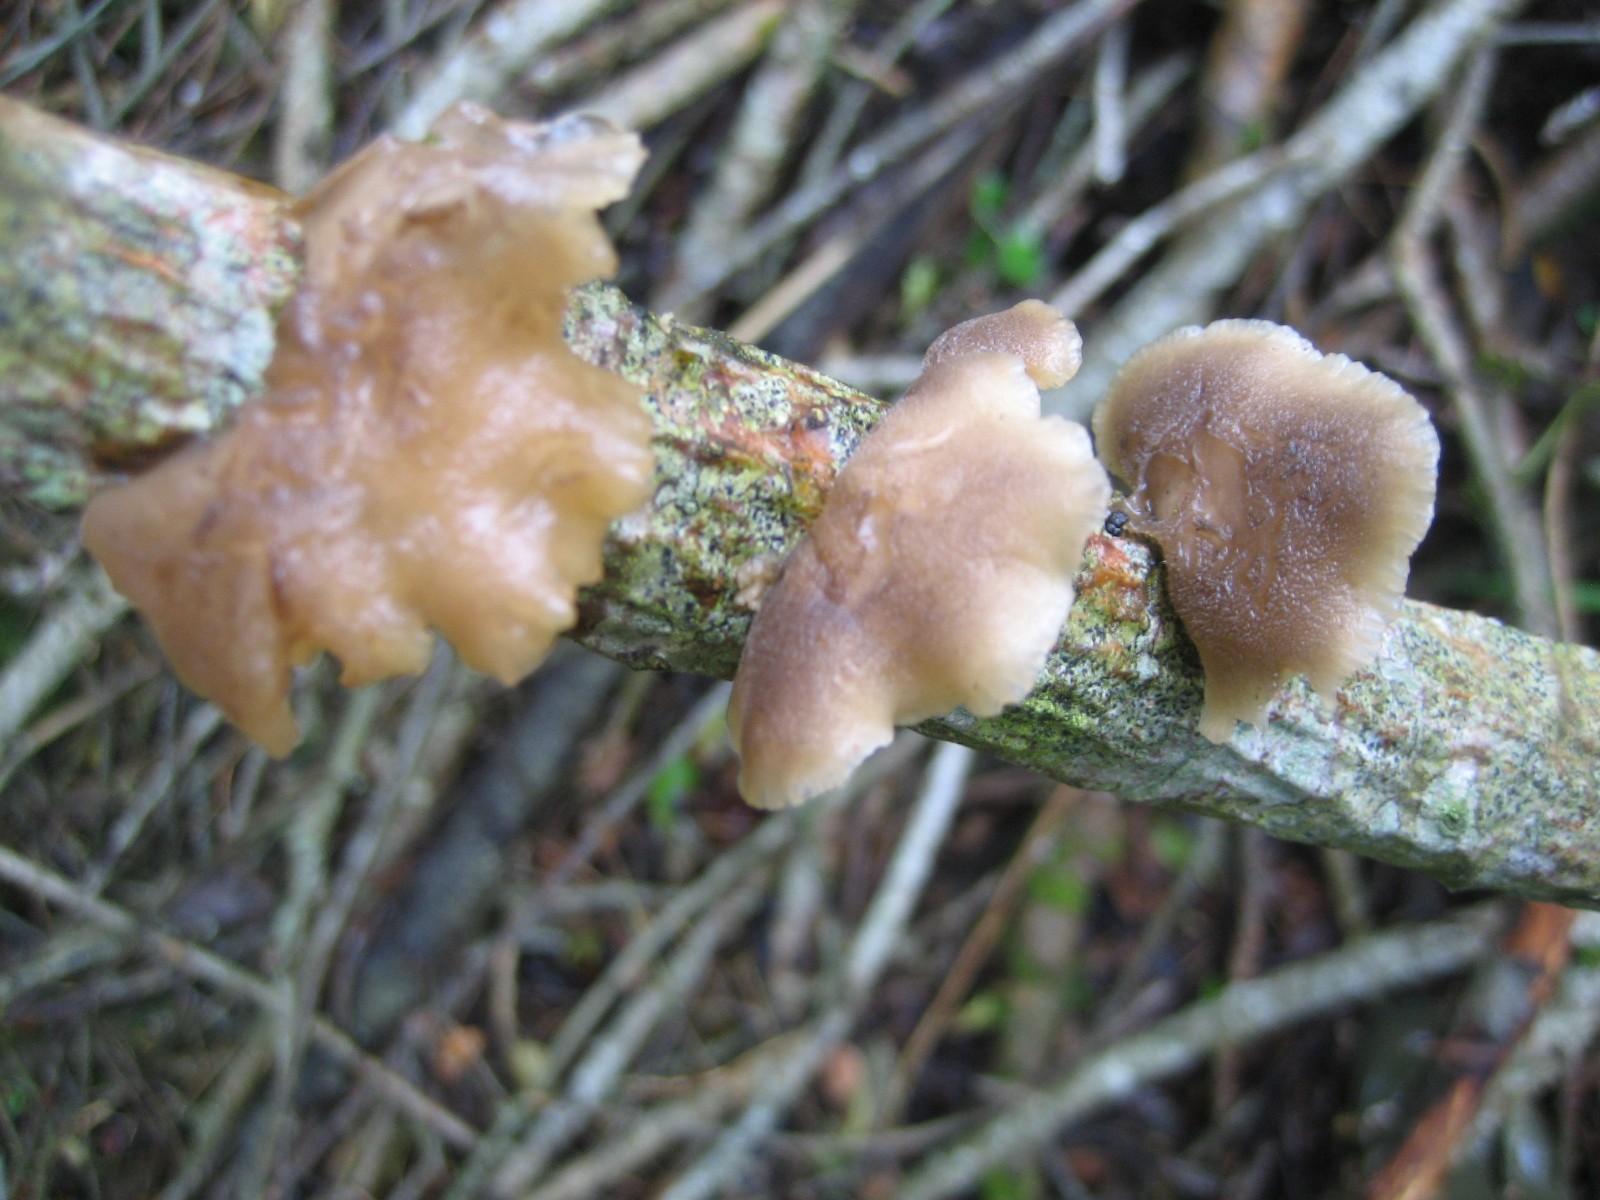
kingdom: Fungi
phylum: Basidiomycota
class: Agaricomycetes
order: Agaricales
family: Pleurotaceae
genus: Hohenbuehelia
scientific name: Hohenbuehelia
